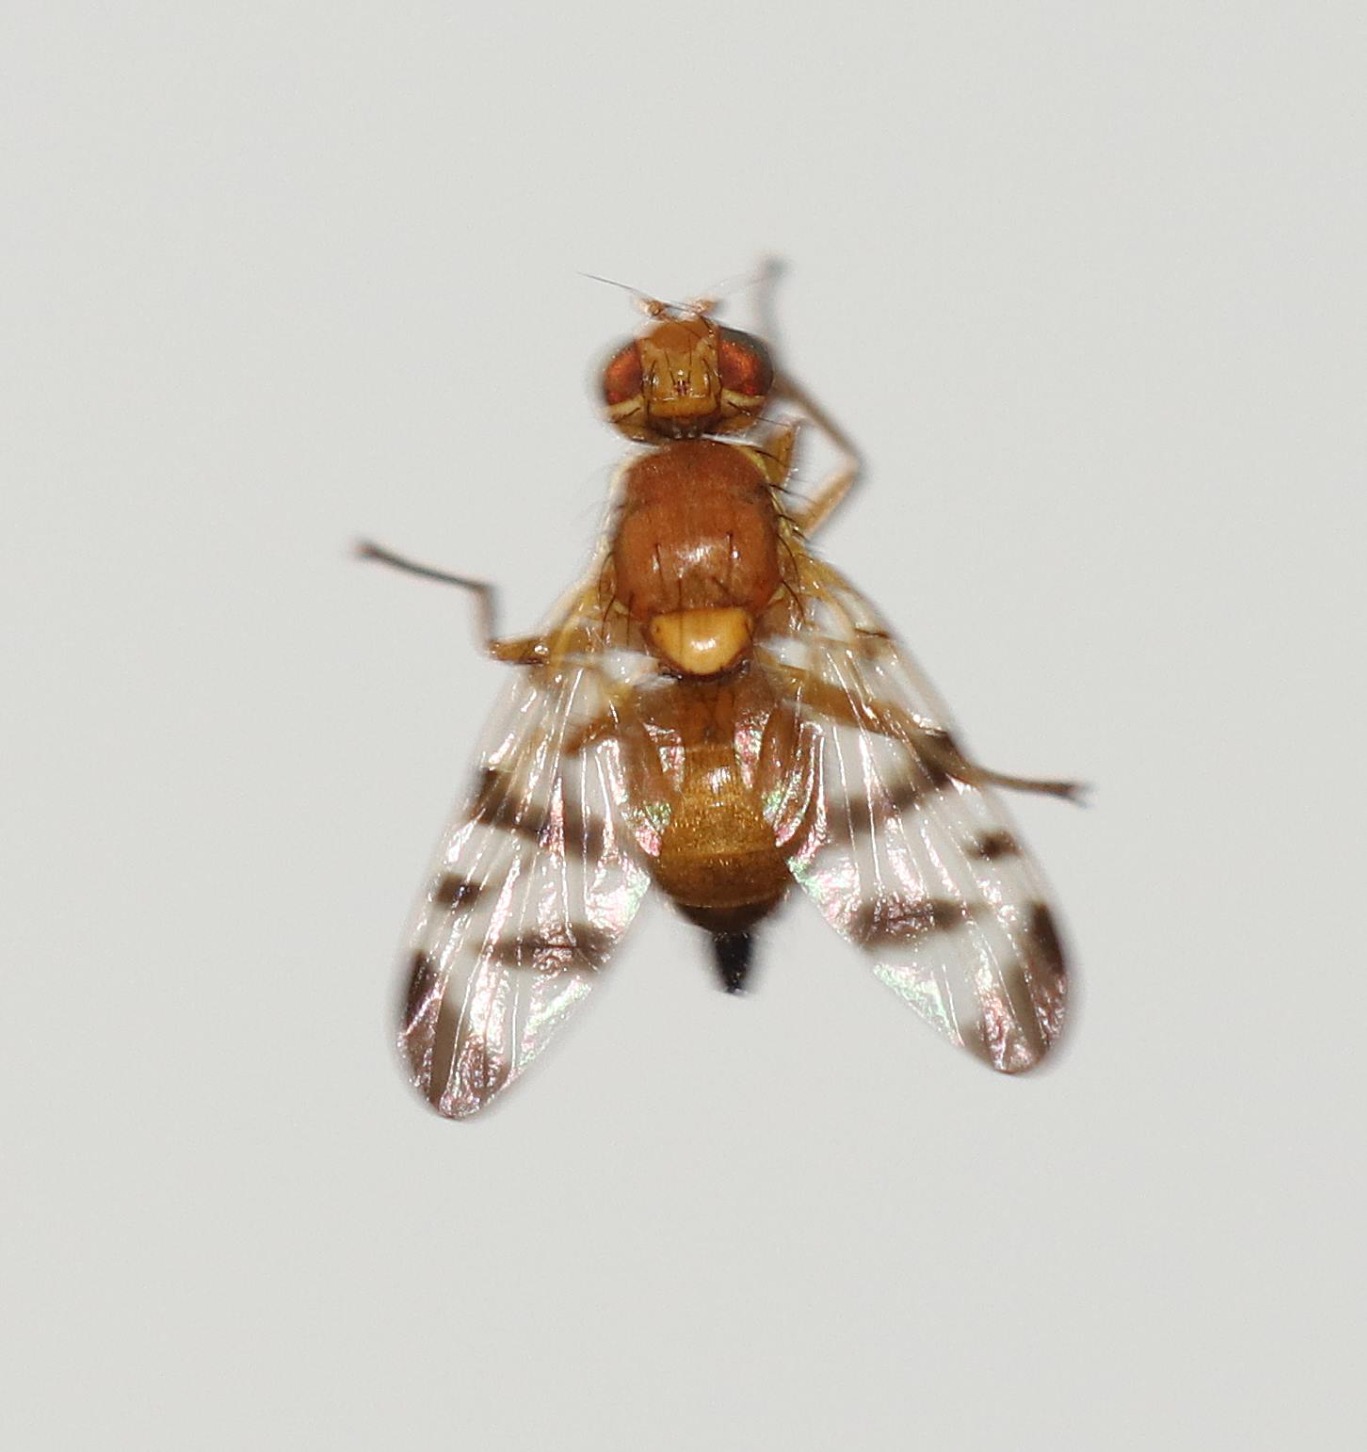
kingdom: Animalia
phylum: Arthropoda
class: Insecta
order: Diptera
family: Tephritidae
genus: Rhagoletis
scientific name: Rhagoletis meigenii
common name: Berberisflue
